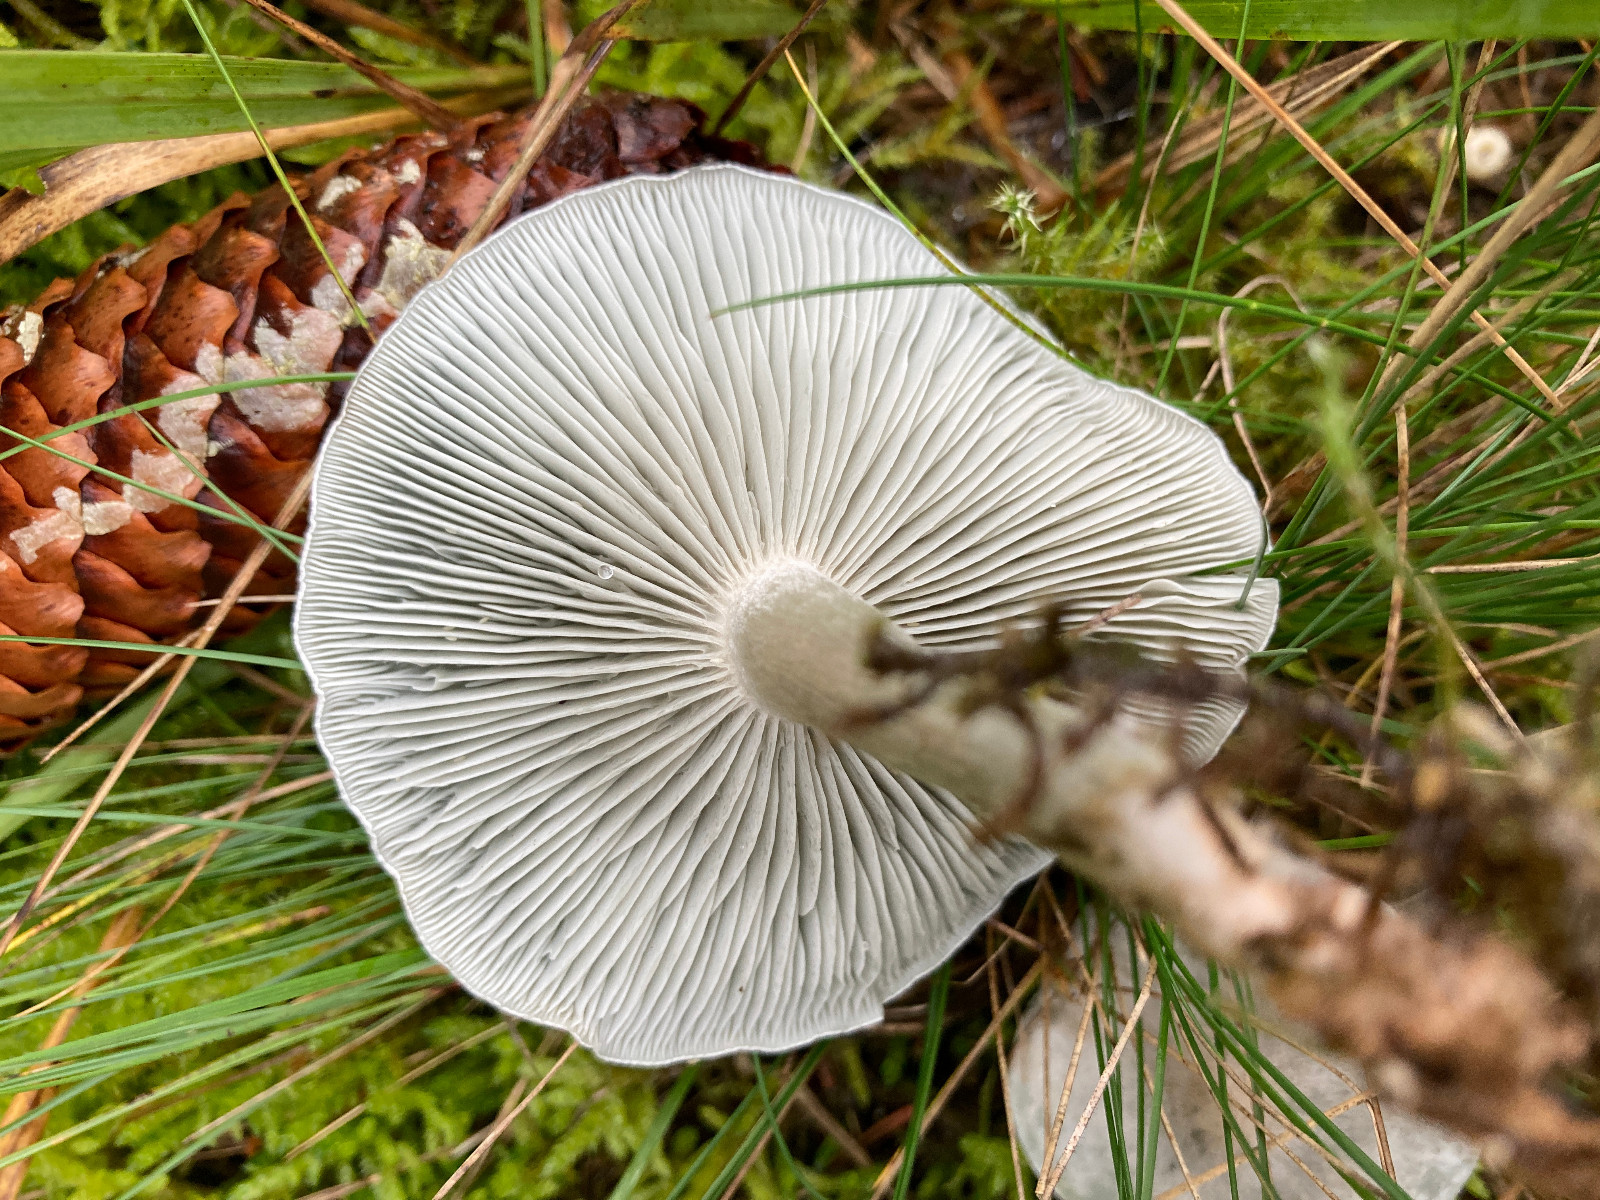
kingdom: Fungi
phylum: Basidiomycota
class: Agaricomycetes
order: Agaricales
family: Tricholomataceae
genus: Clitocybe
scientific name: Clitocybe odora
